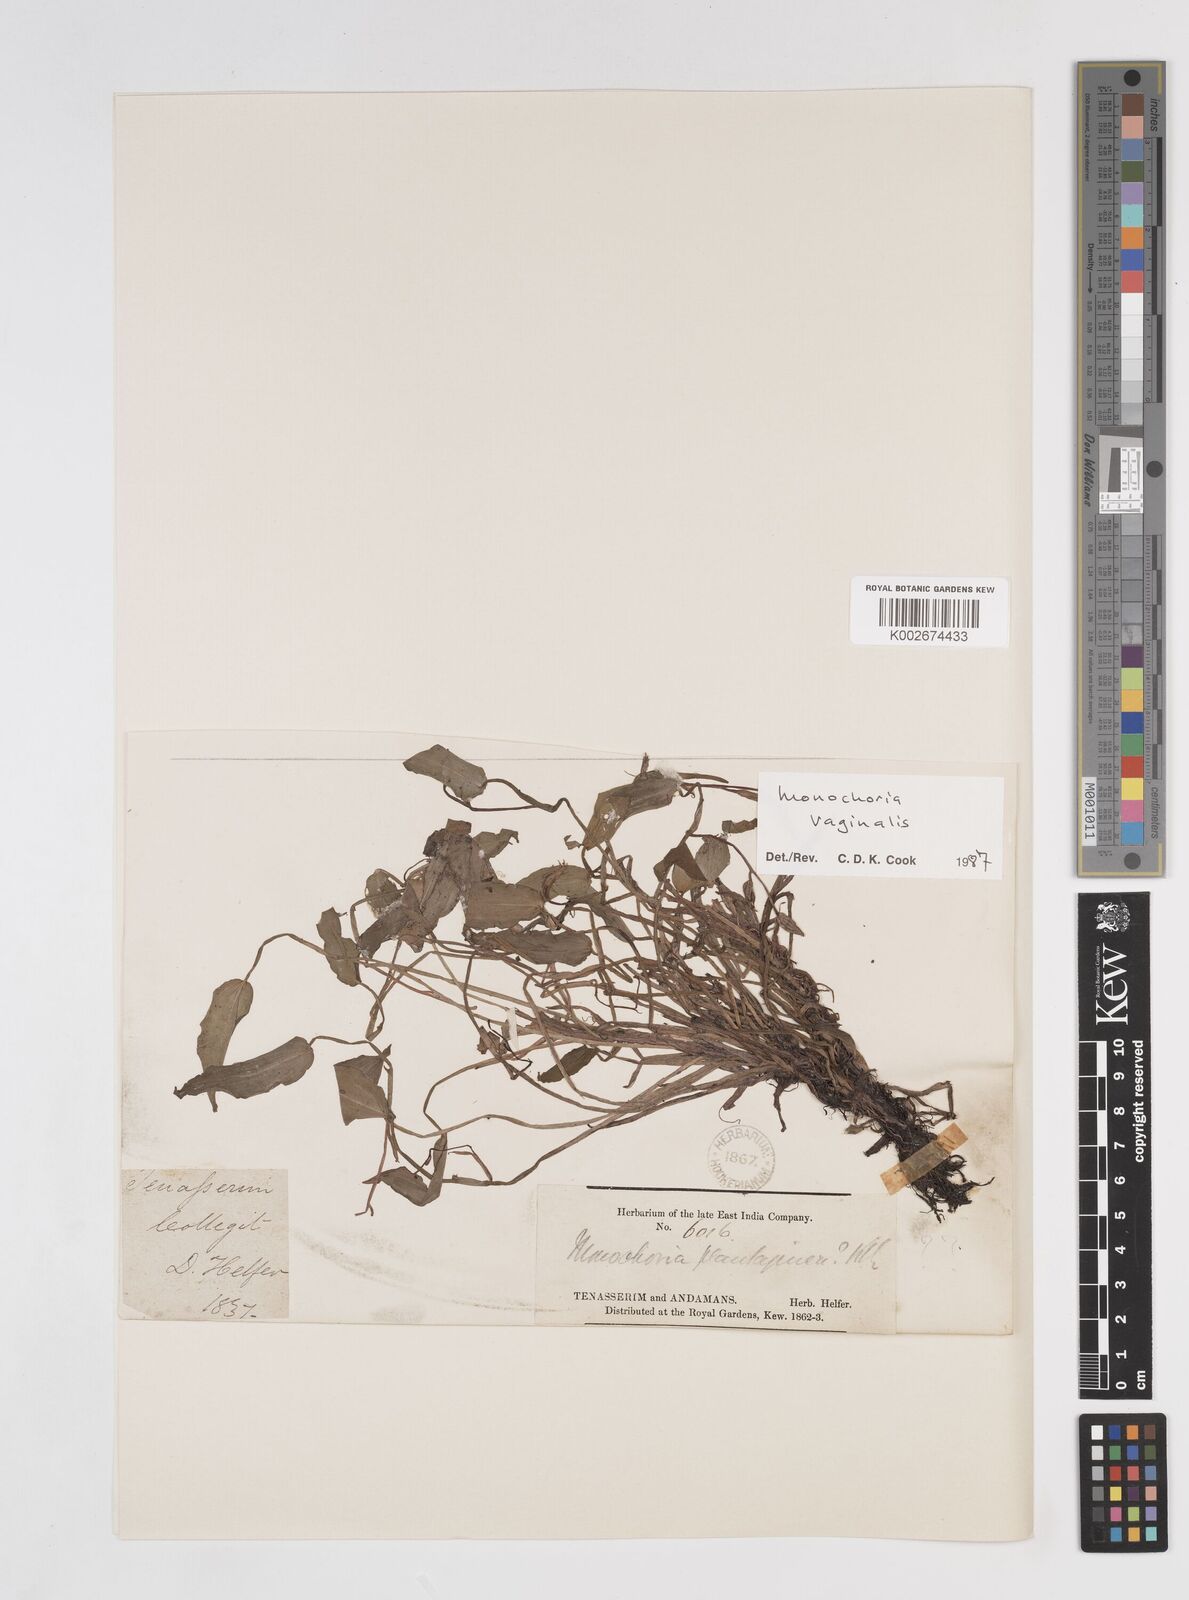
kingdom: Plantae
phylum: Tracheophyta
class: Liliopsida
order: Commelinales
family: Pontederiaceae
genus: Pontederia
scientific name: Pontederia vaginalis
